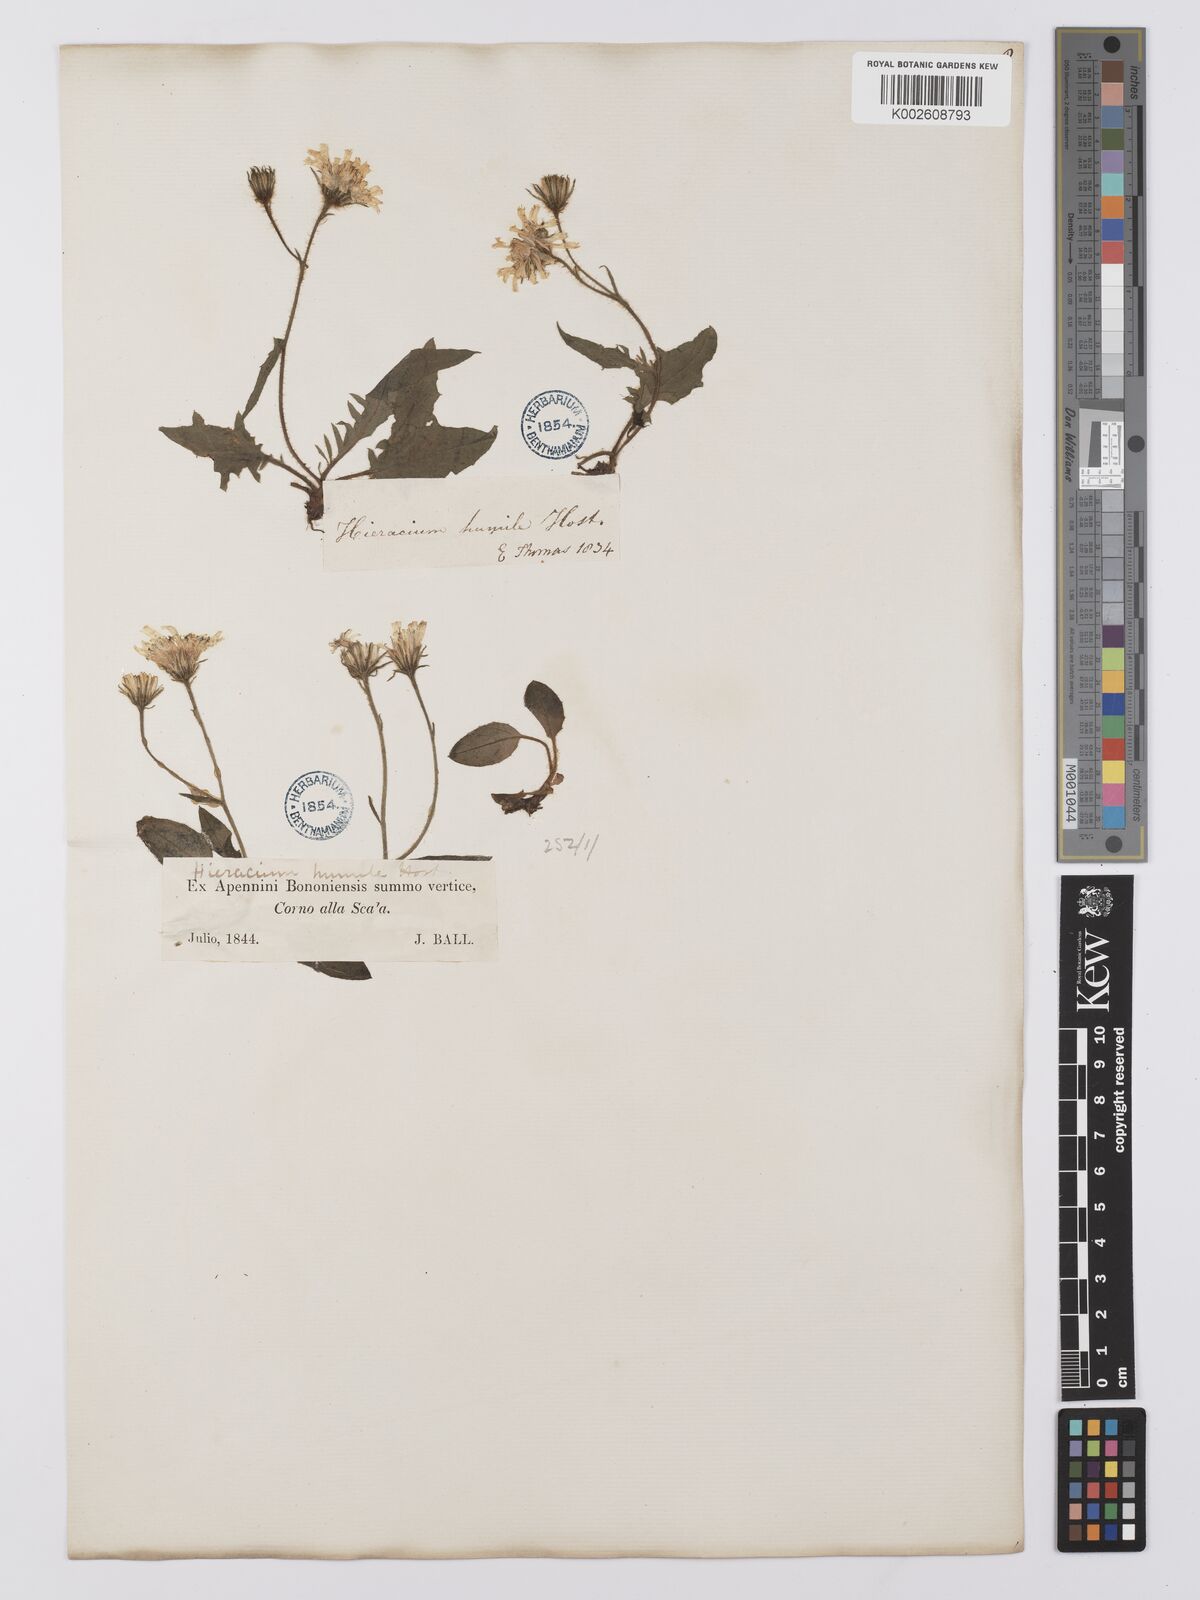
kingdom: Plantae
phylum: Tracheophyta
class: Magnoliopsida
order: Asterales
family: Asteraceae
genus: Hieracium
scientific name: Hieracium humile
